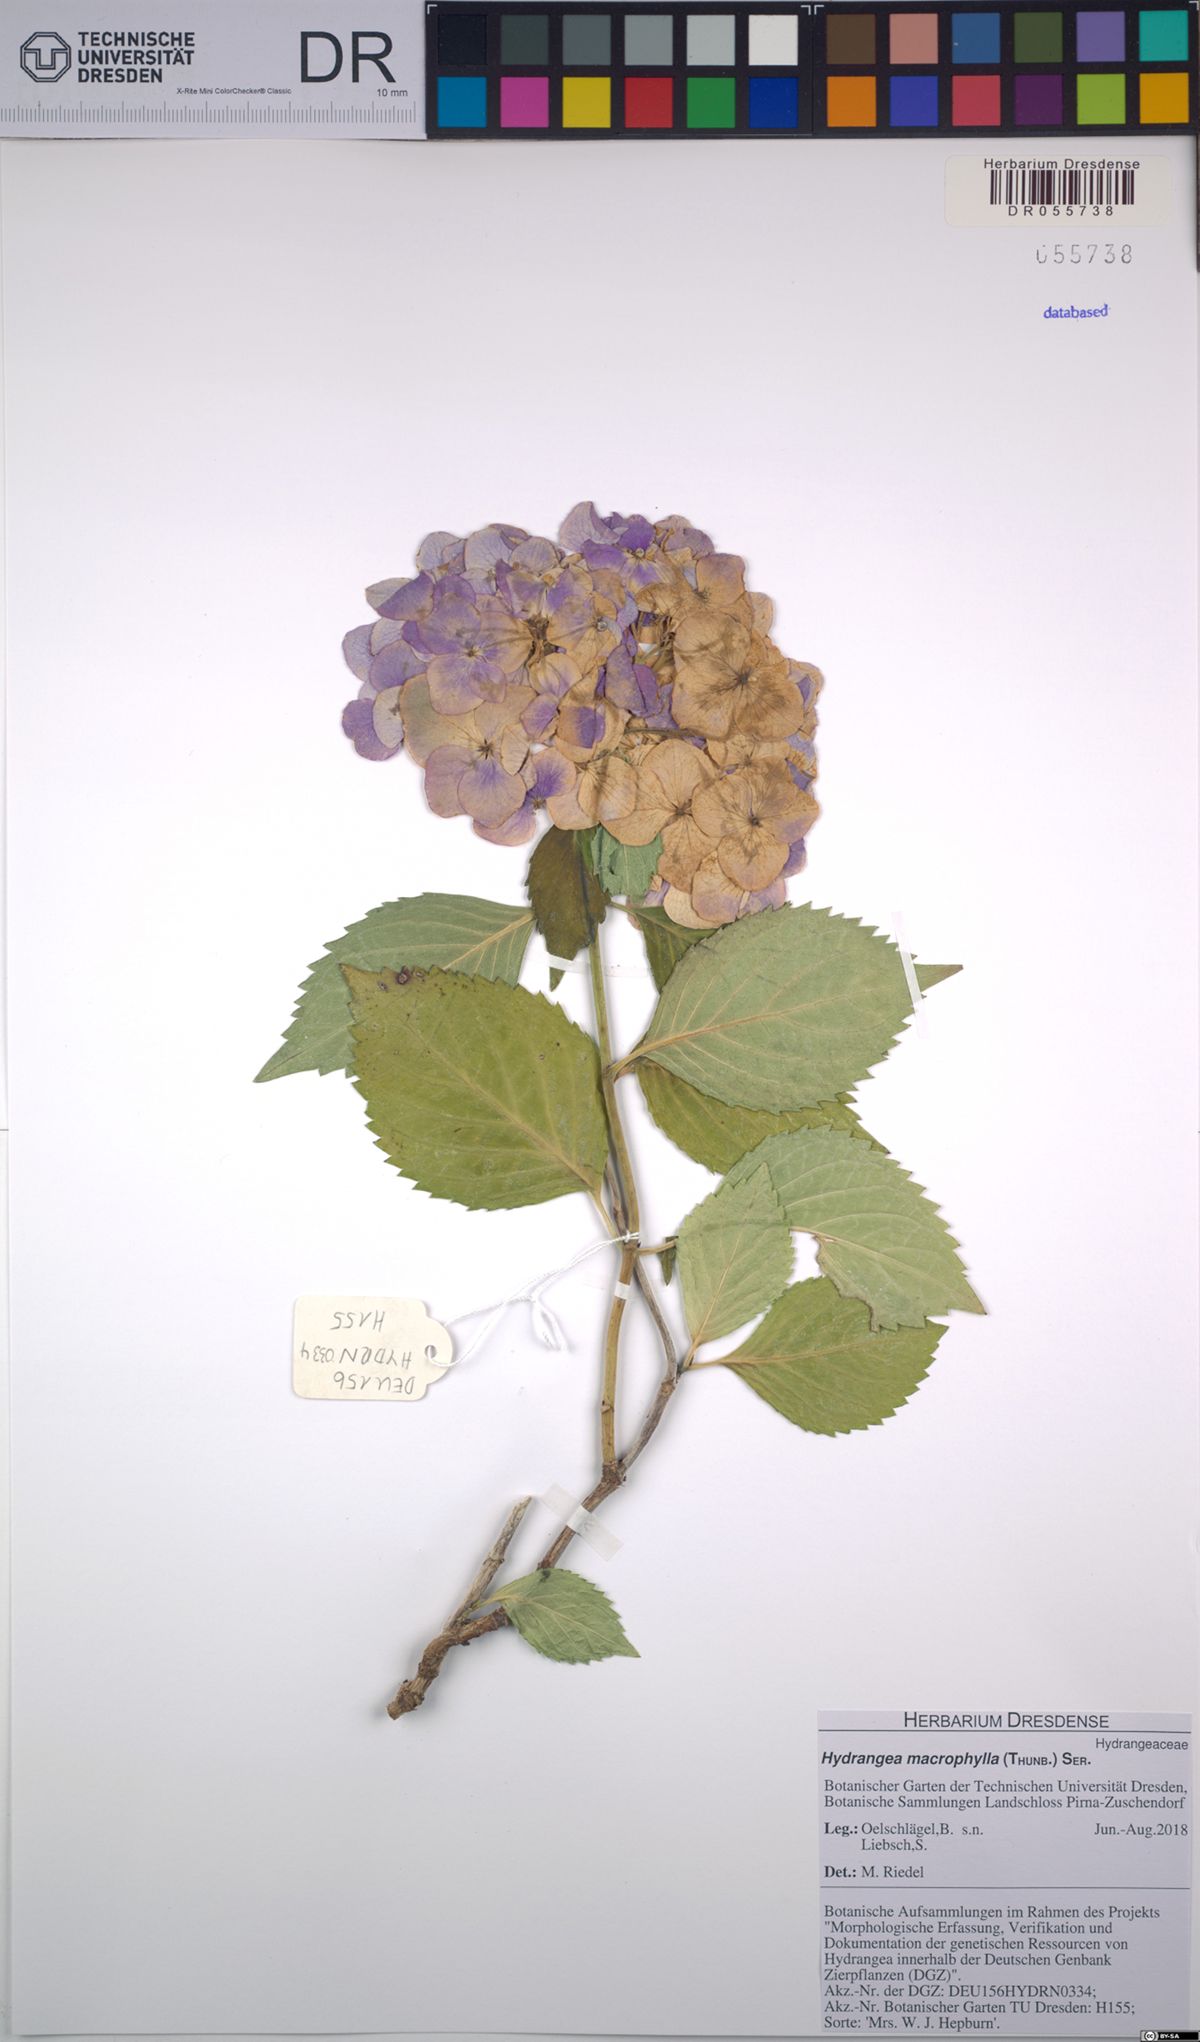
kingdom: Plantae
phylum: Tracheophyta
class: Magnoliopsida
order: Cornales
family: Hydrangeaceae
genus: Hydrangea
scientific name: Hydrangea macrophylla
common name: Hydrangea
